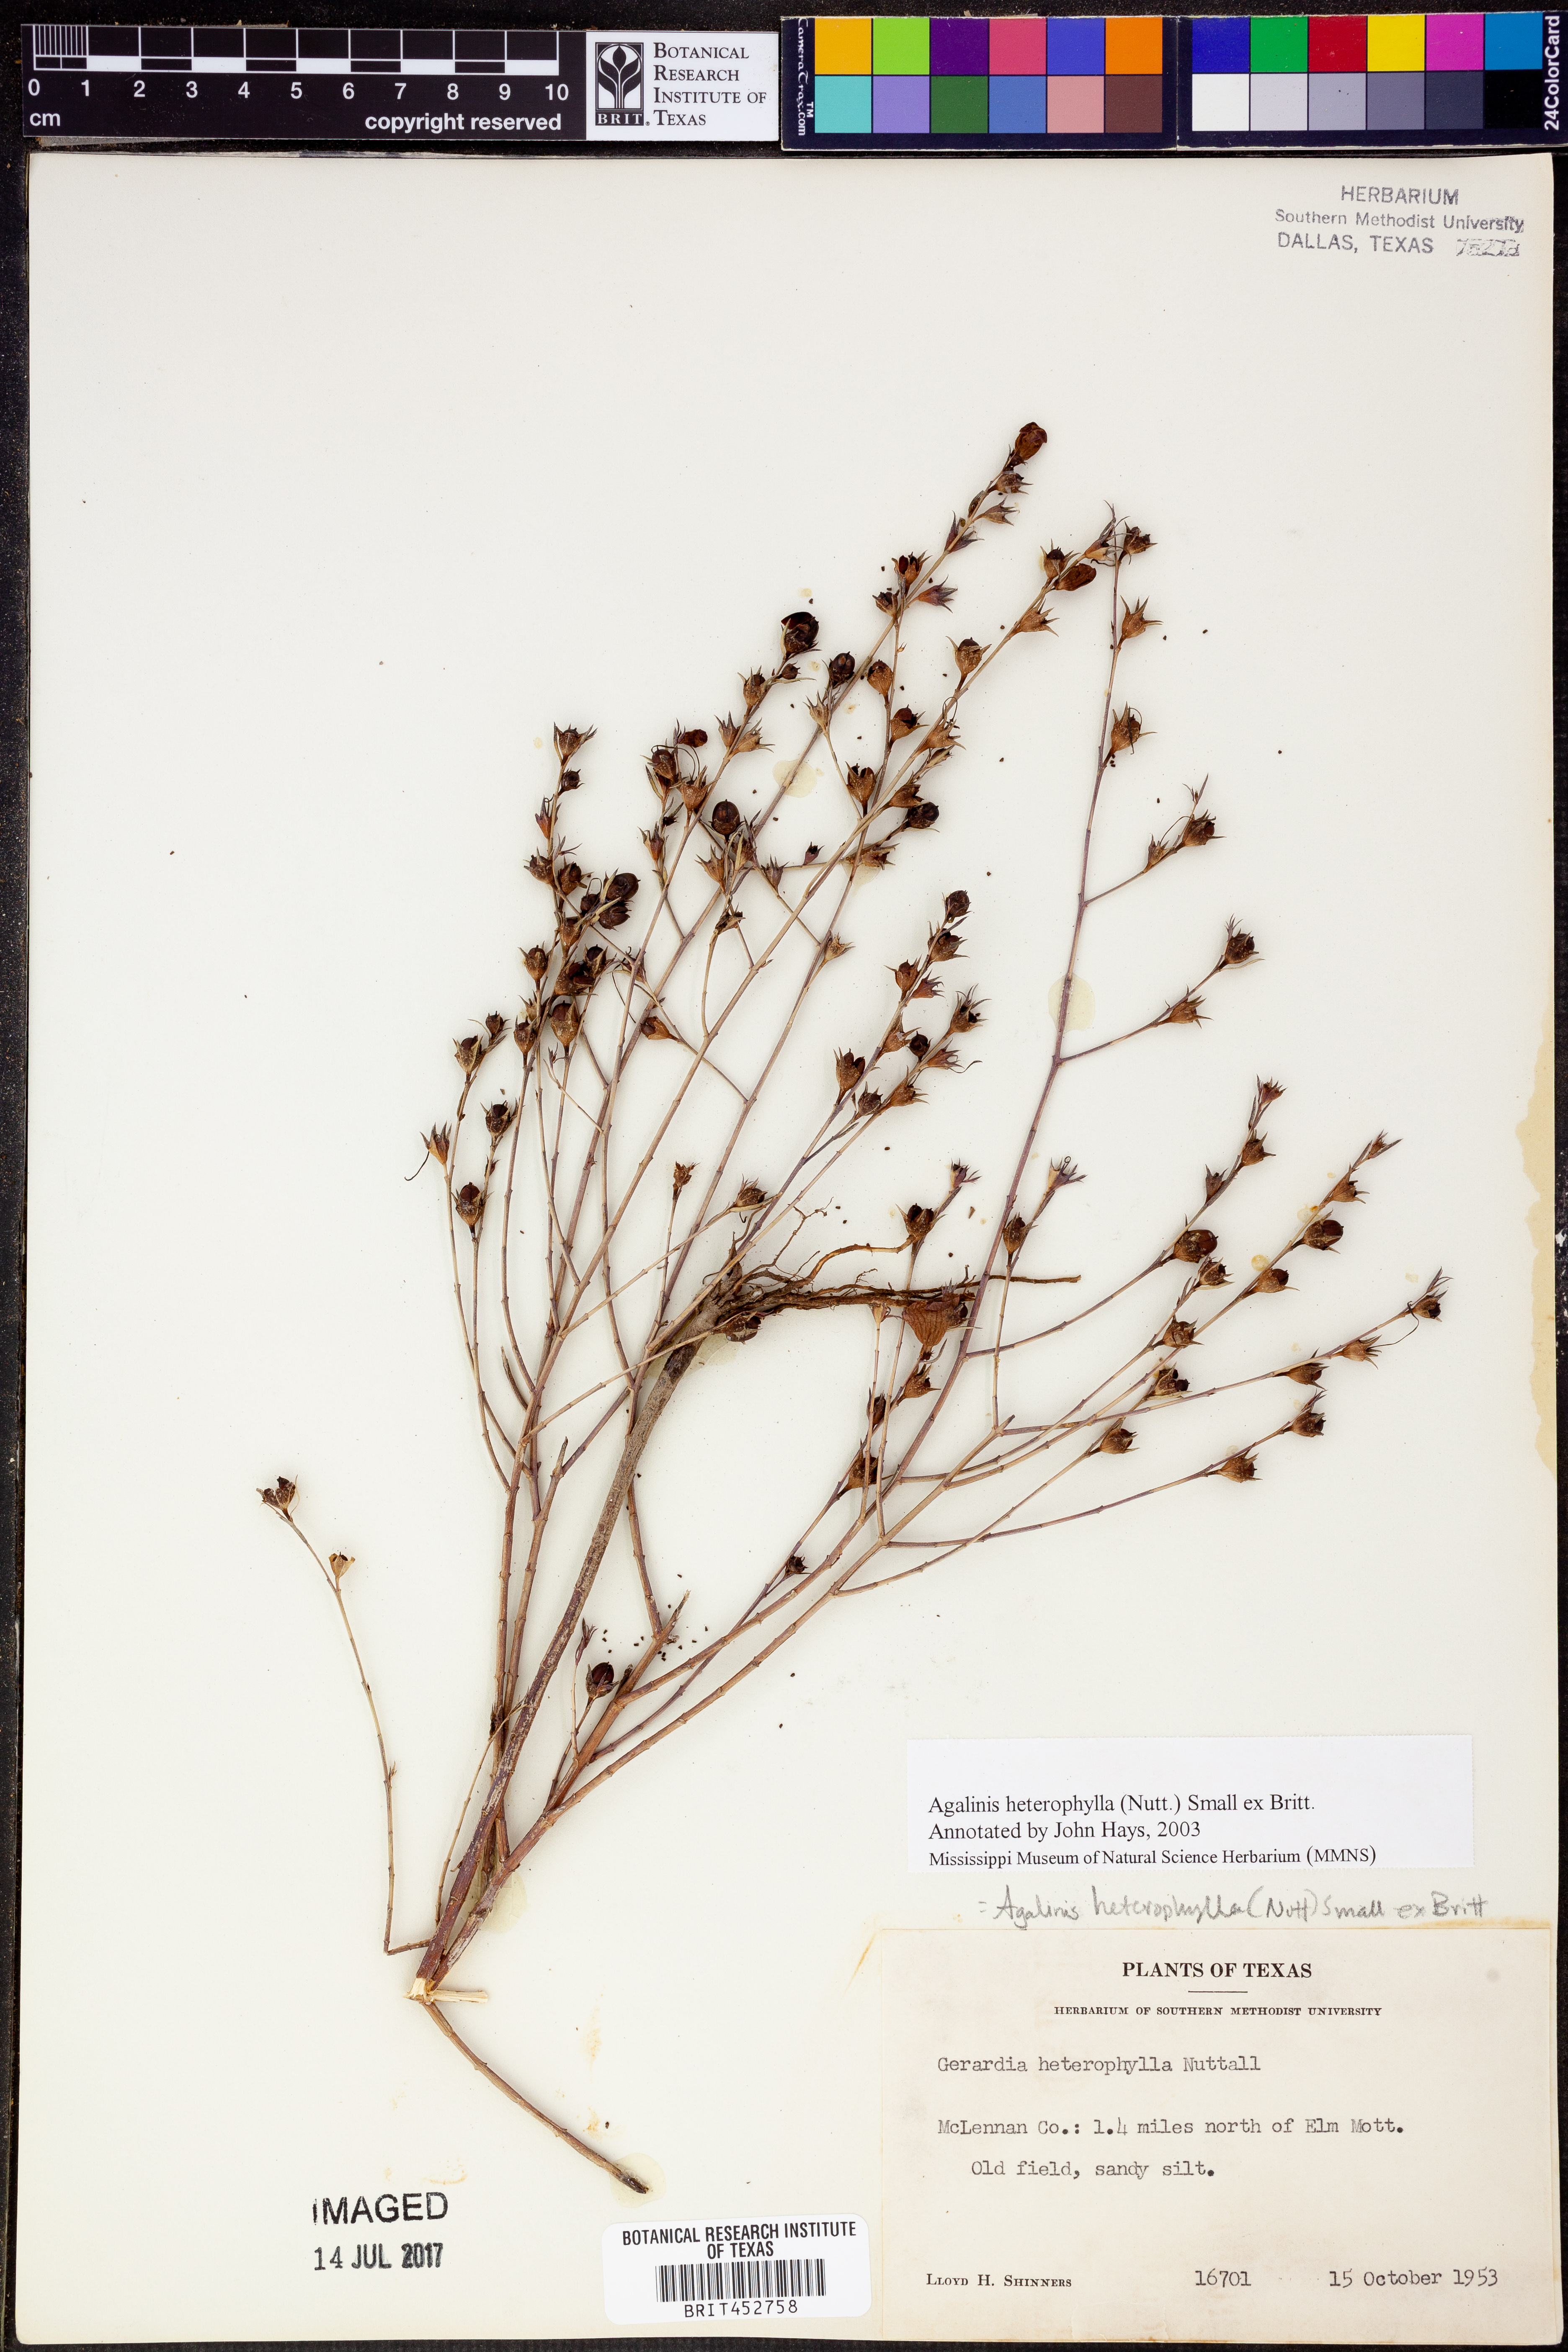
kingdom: Plantae
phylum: Tracheophyta
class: Magnoliopsida
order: Lamiales
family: Orobanchaceae
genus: Agalinis
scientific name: Agalinis heterophylla
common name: Prairie agalinis
